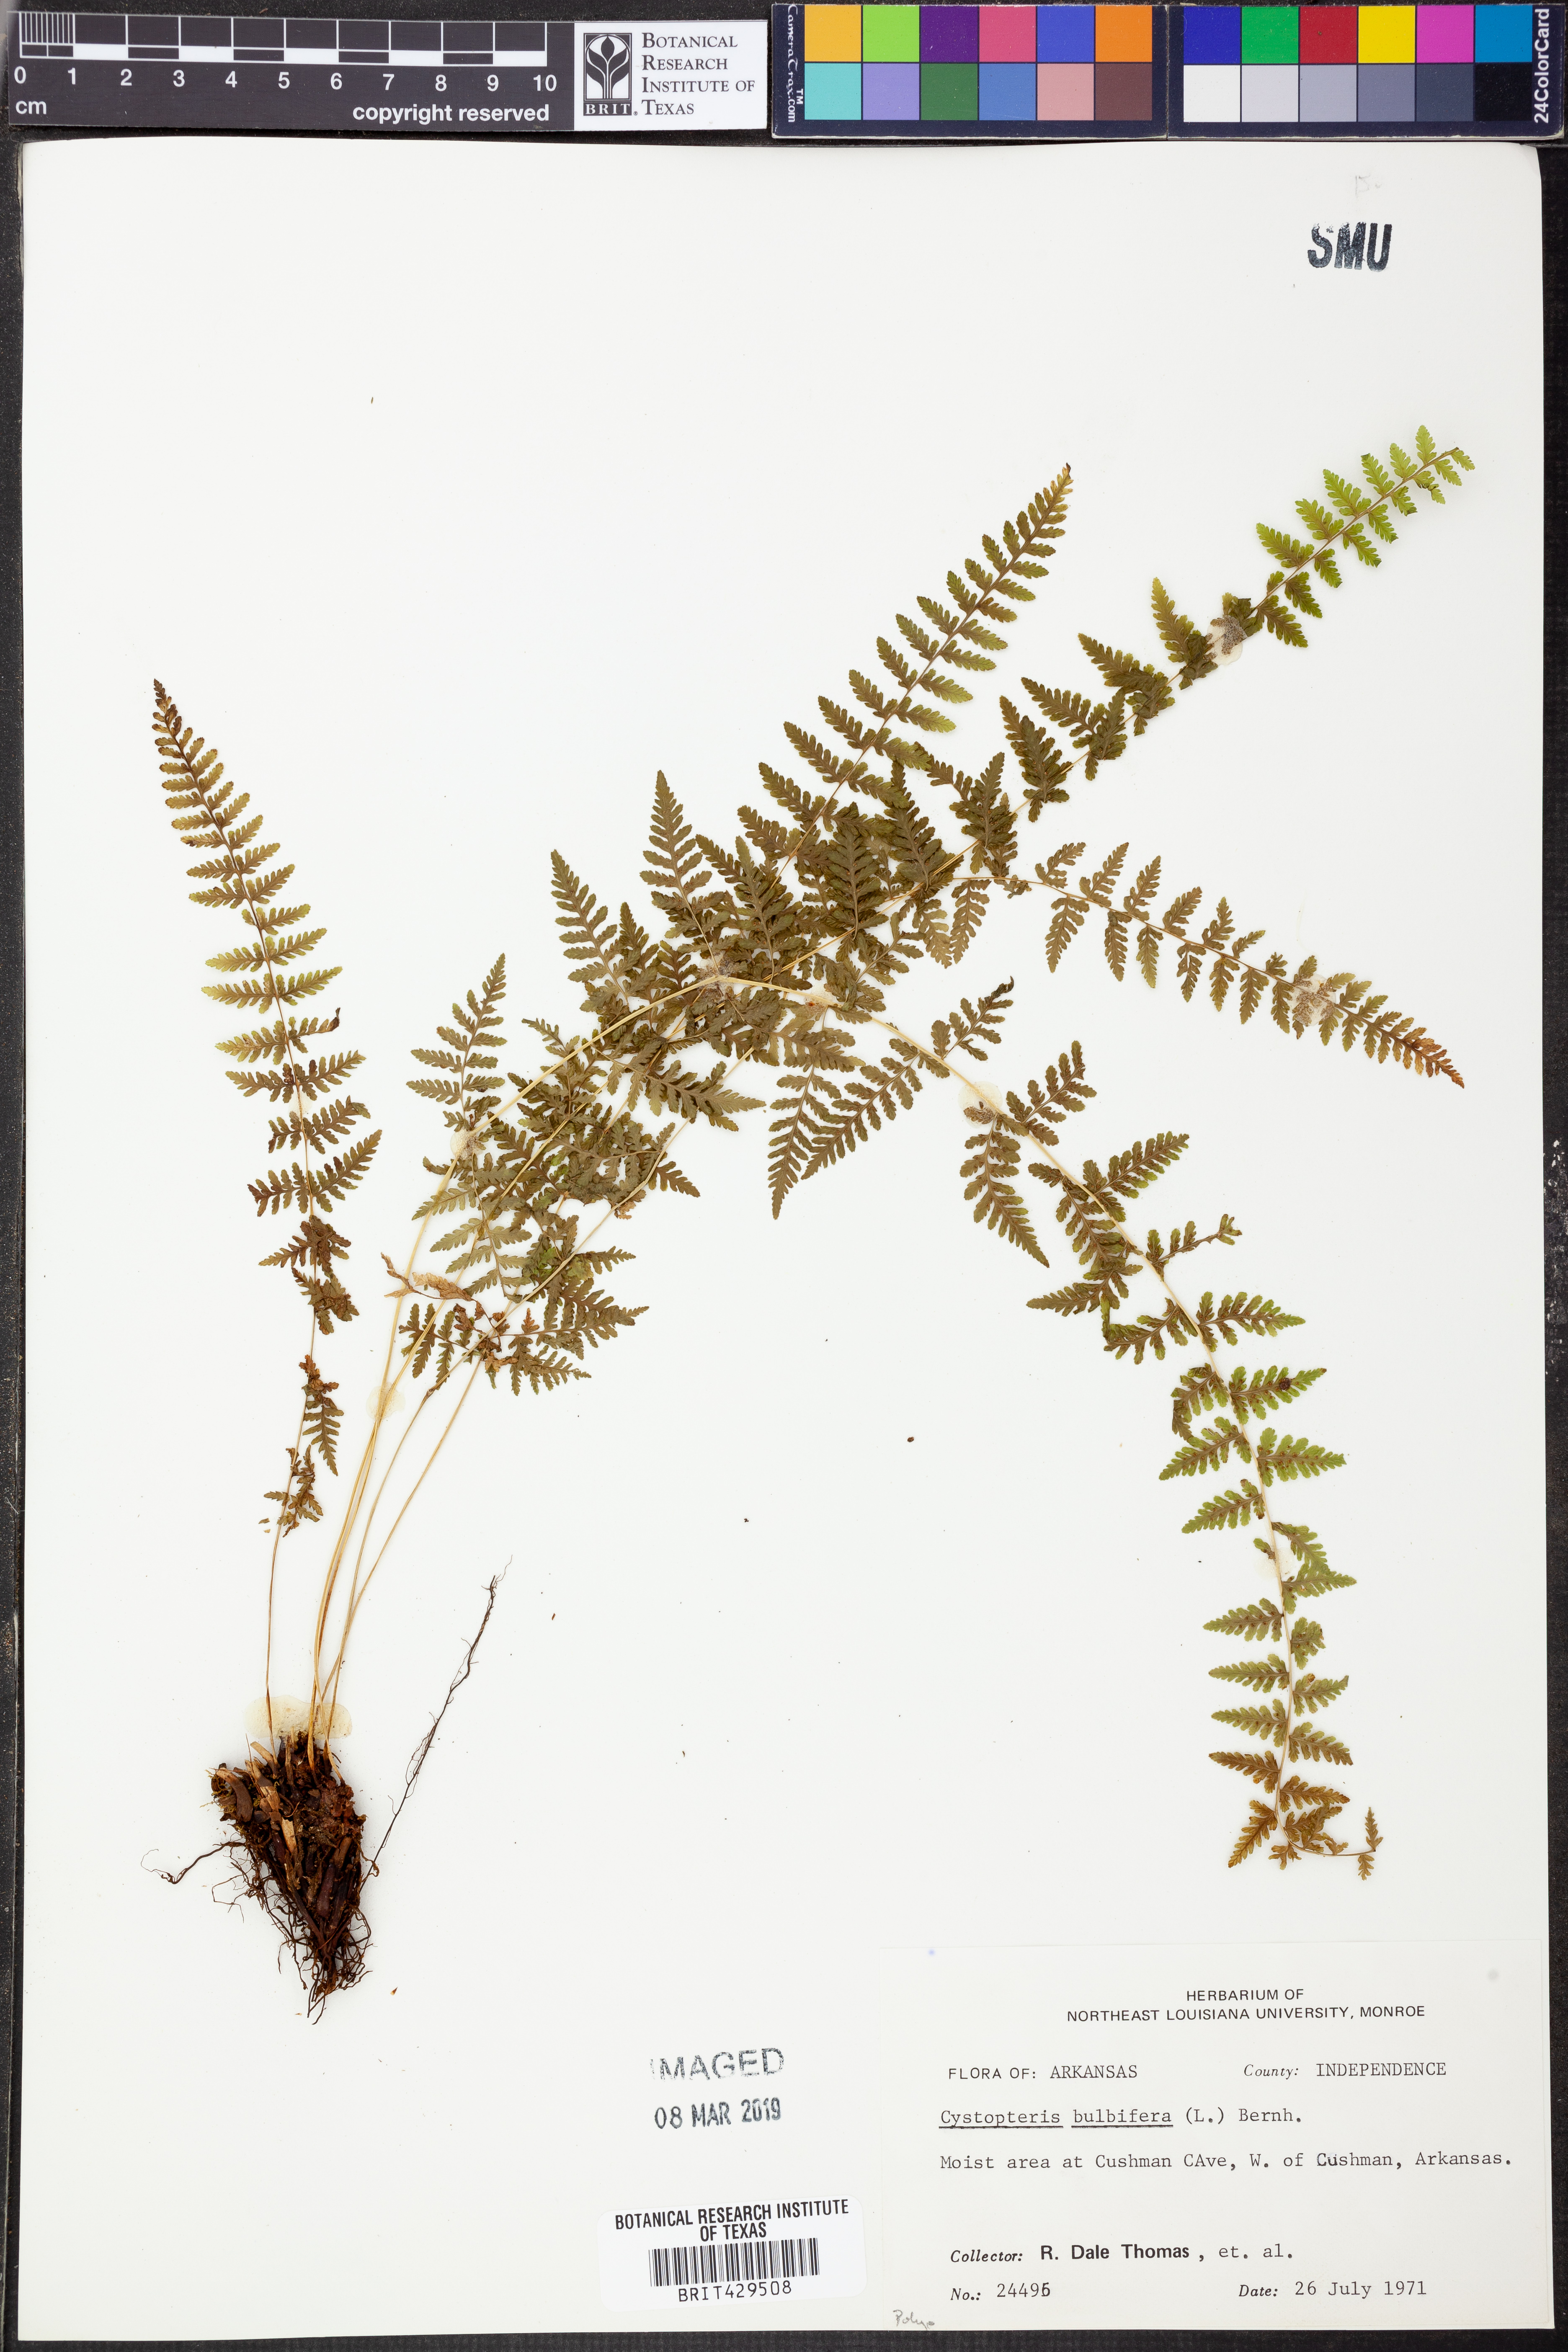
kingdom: Plantae
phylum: Tracheophyta
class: Polypodiopsida
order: Polypodiales
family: Cystopteridaceae
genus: Cystopteris
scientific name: Cystopteris bulbifera
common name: Bulblet bladder fern
